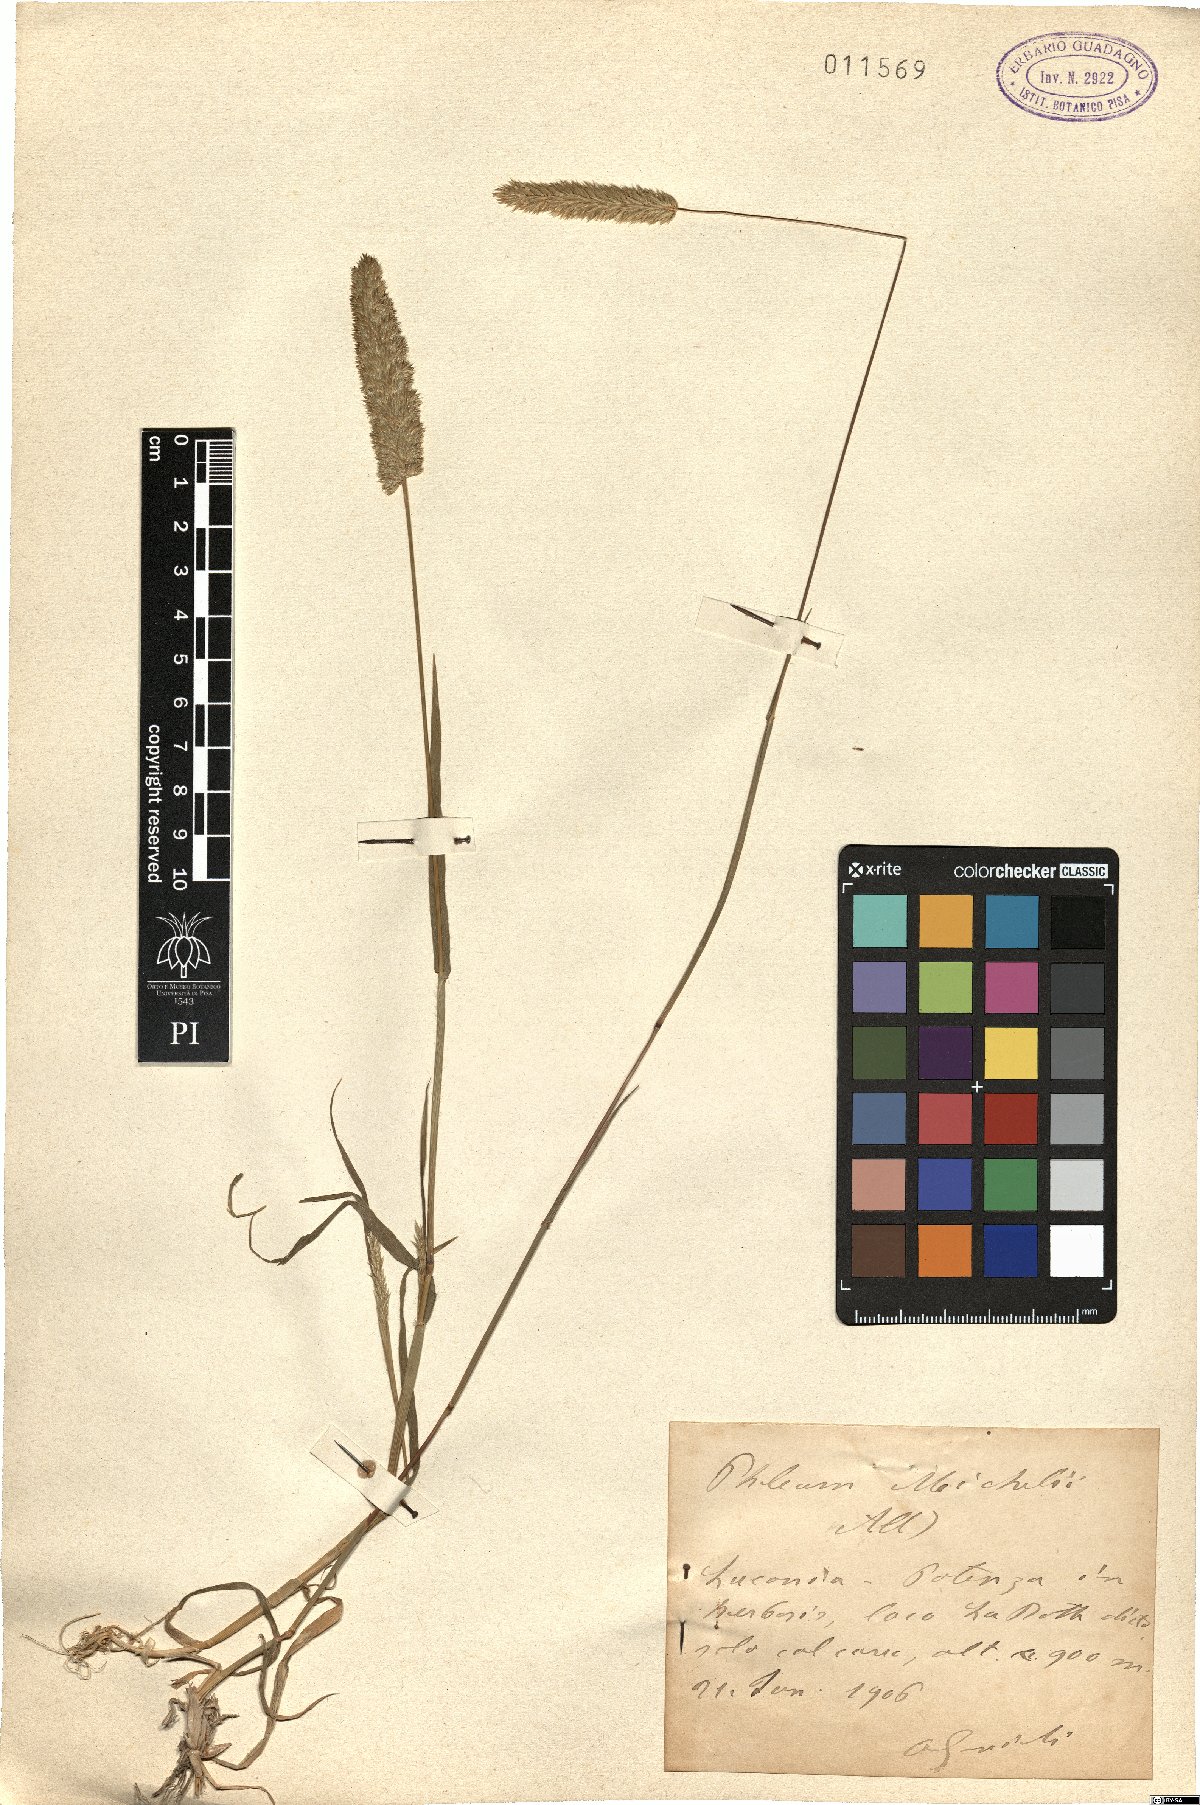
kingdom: Plantae
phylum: Tracheophyta
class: Liliopsida
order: Poales
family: Poaceae
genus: Phleum
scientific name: Phleum hirsutum
